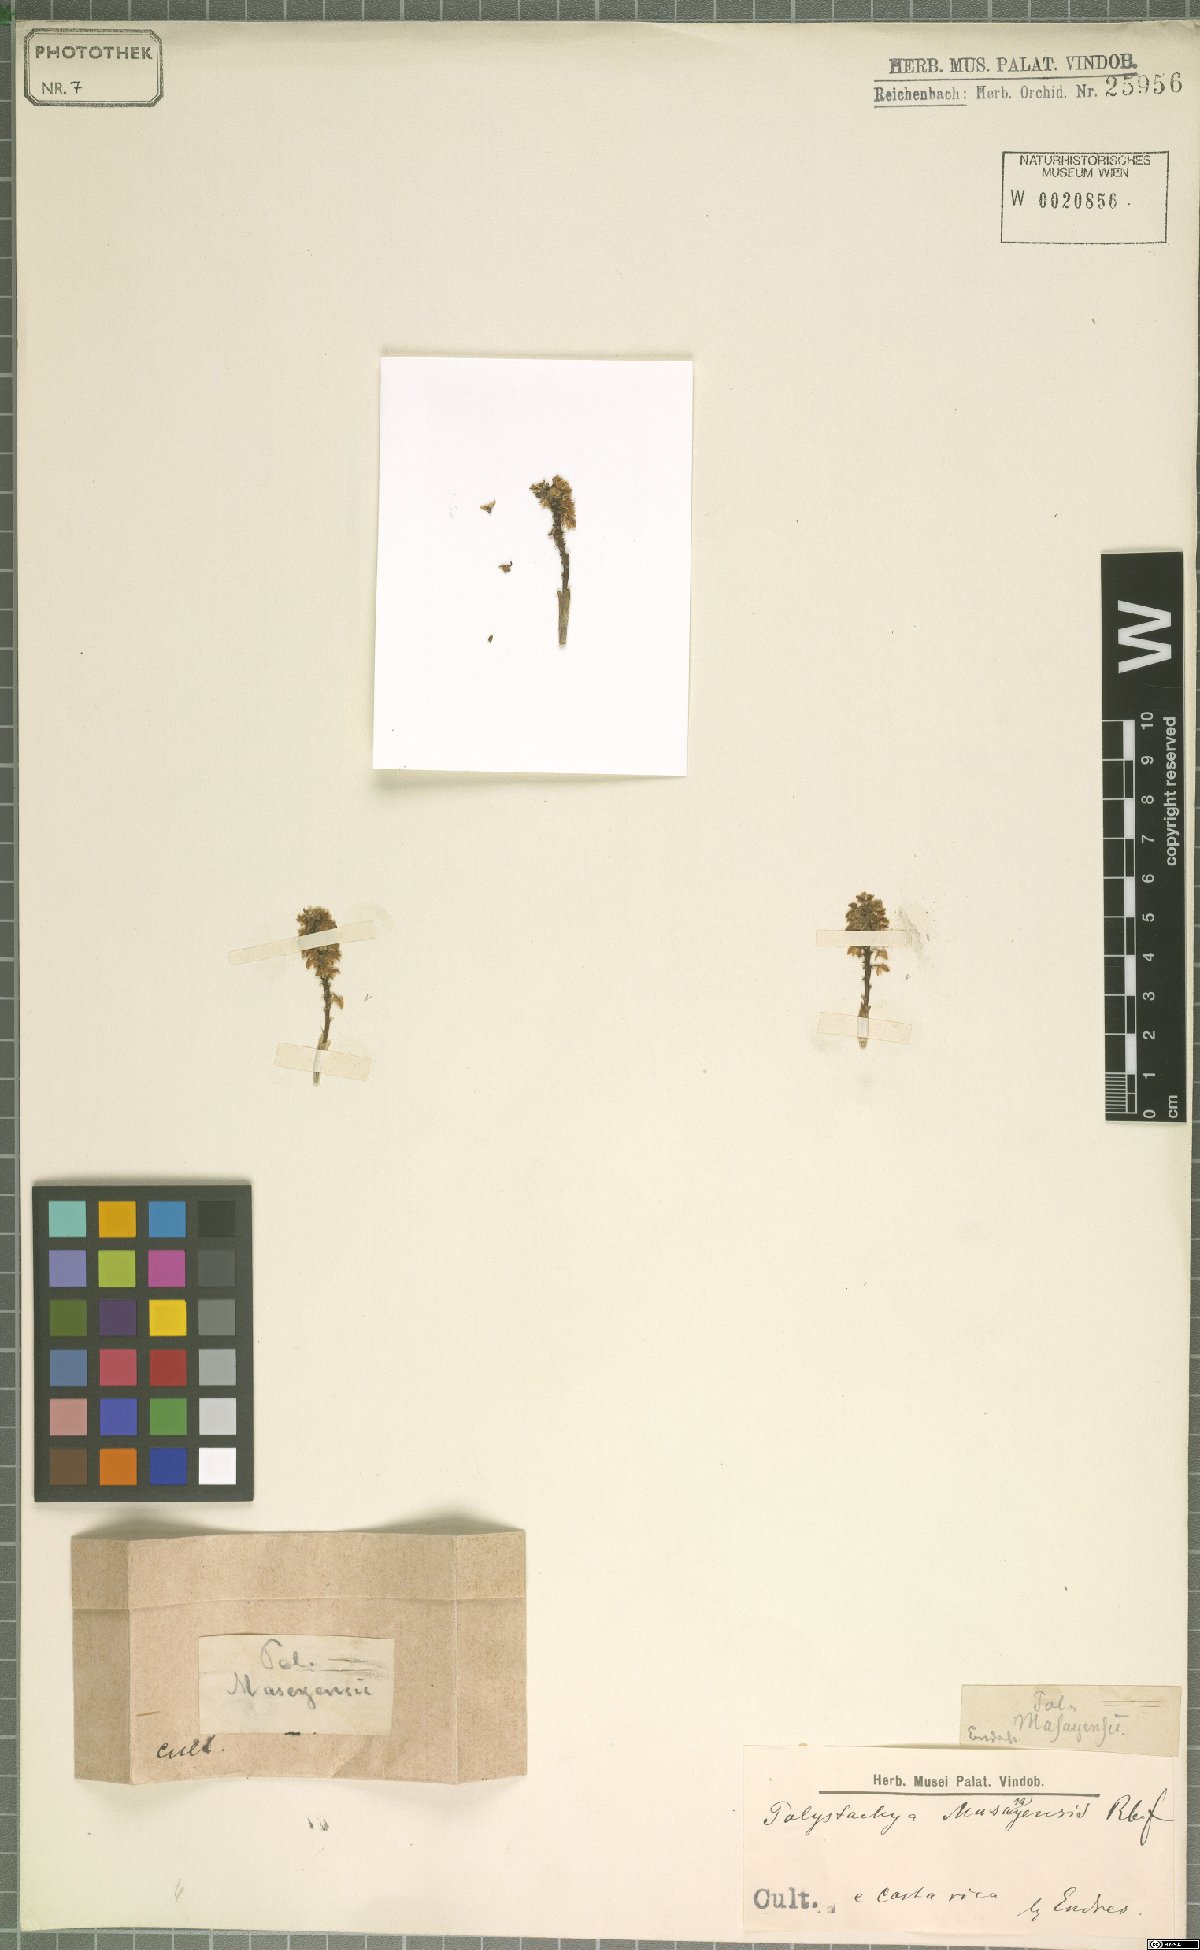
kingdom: Plantae
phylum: Tracheophyta
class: Liliopsida
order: Asparagales
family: Orchidaceae
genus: Polystachya
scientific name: Polystachya masayensis
